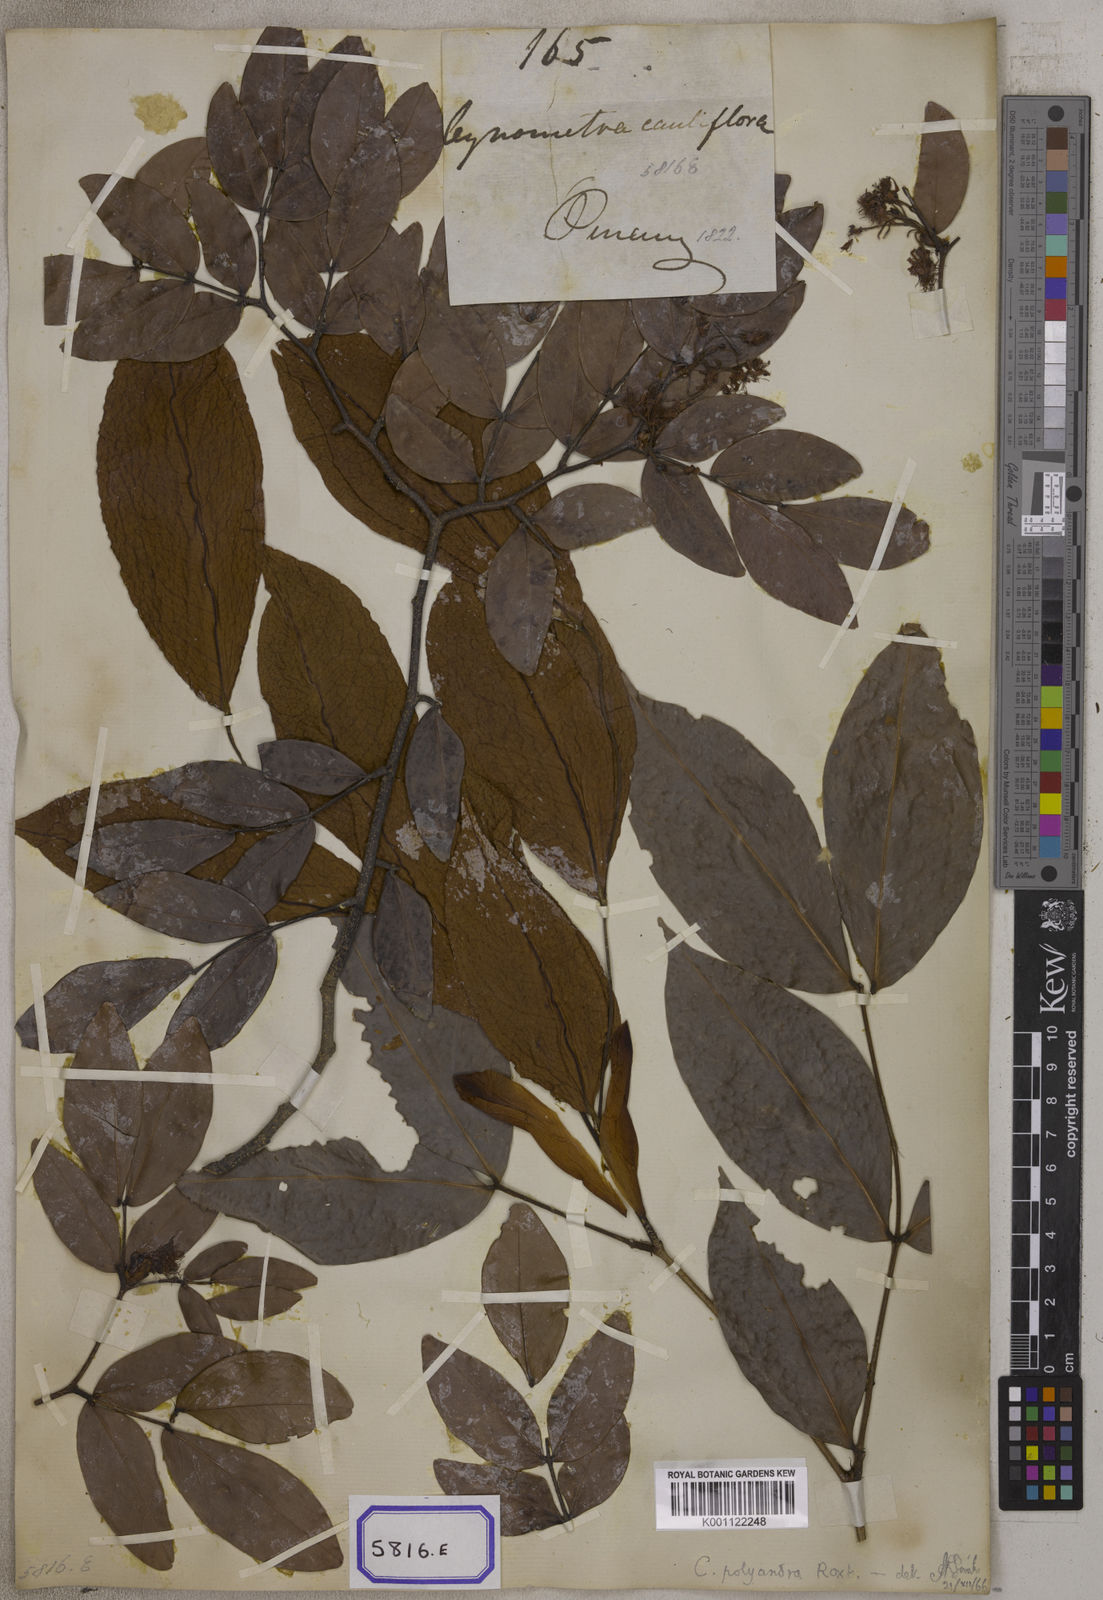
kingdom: Plantae
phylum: Tracheophyta
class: Magnoliopsida
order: Fabales
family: Fabaceae
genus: Cynometra
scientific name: Cynometra cauliflora
